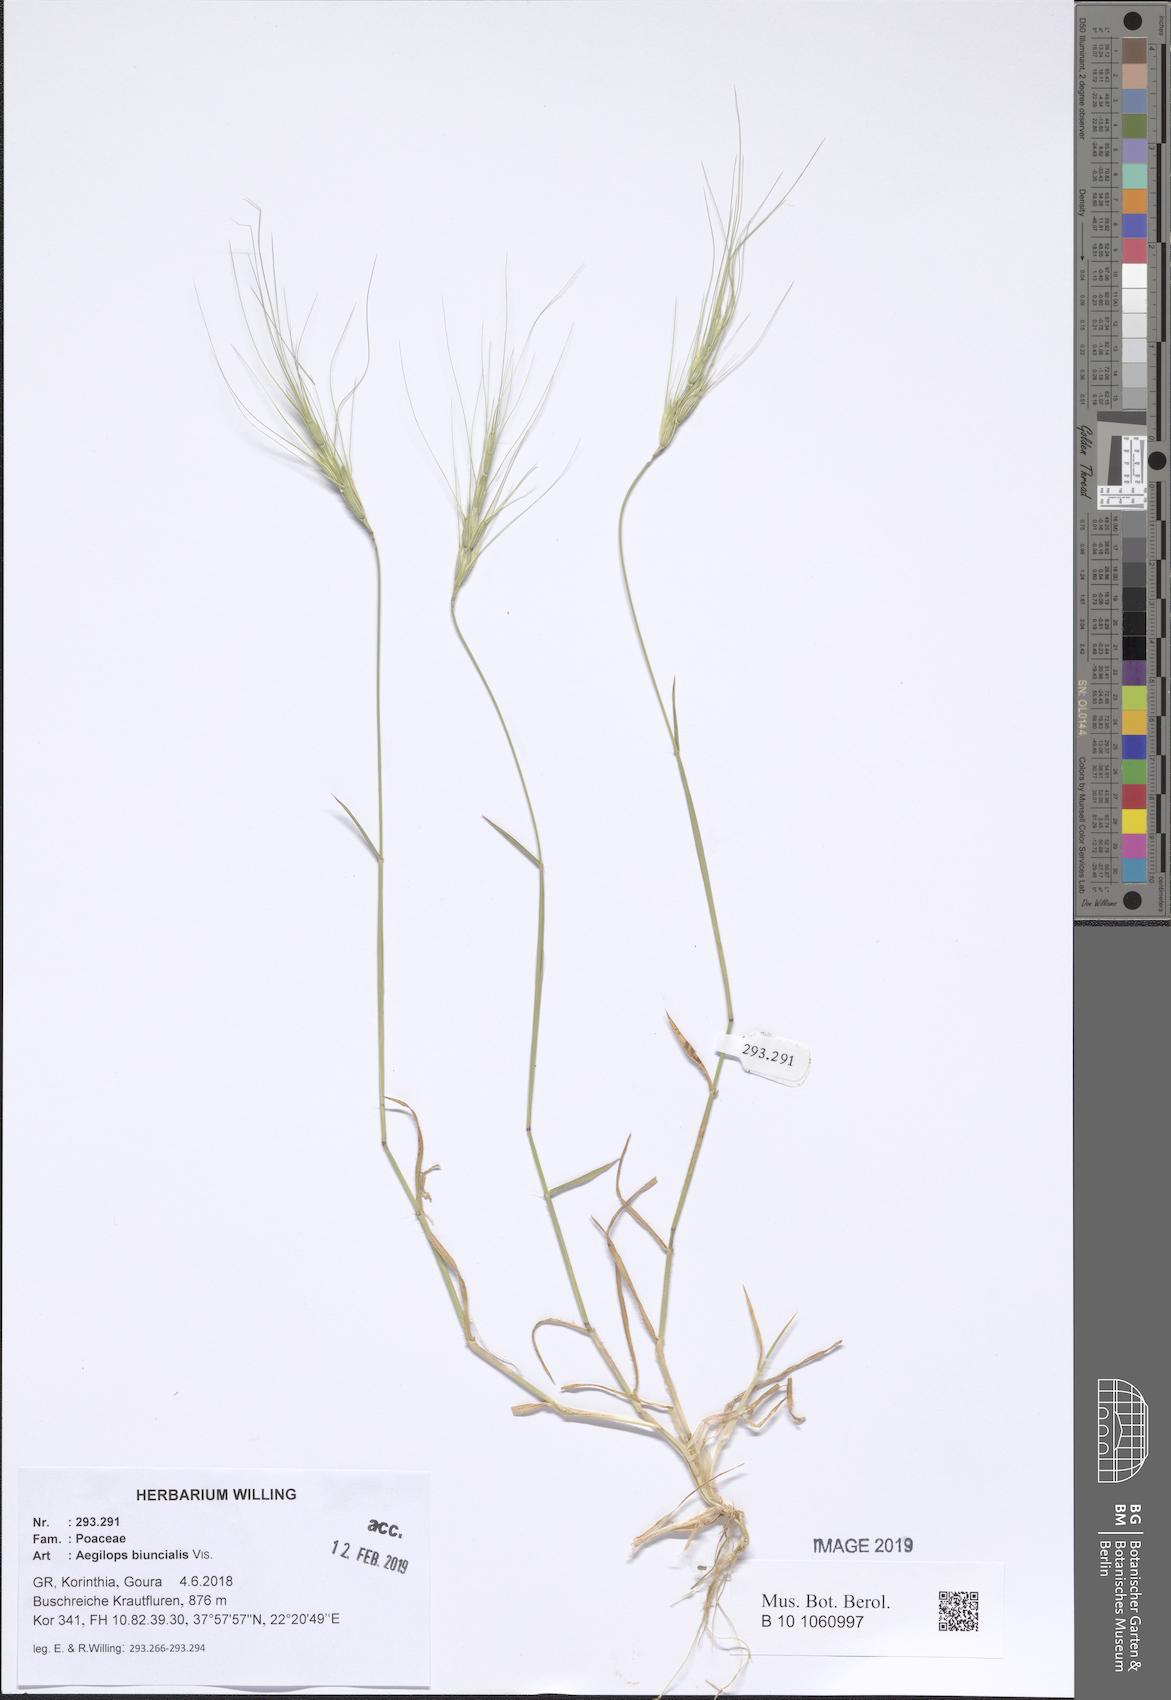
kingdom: Plantae
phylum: Tracheophyta
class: Liliopsida
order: Poales
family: Poaceae
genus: Aegilops
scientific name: Aegilops biuncialis
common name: Mediterranean aegilops
